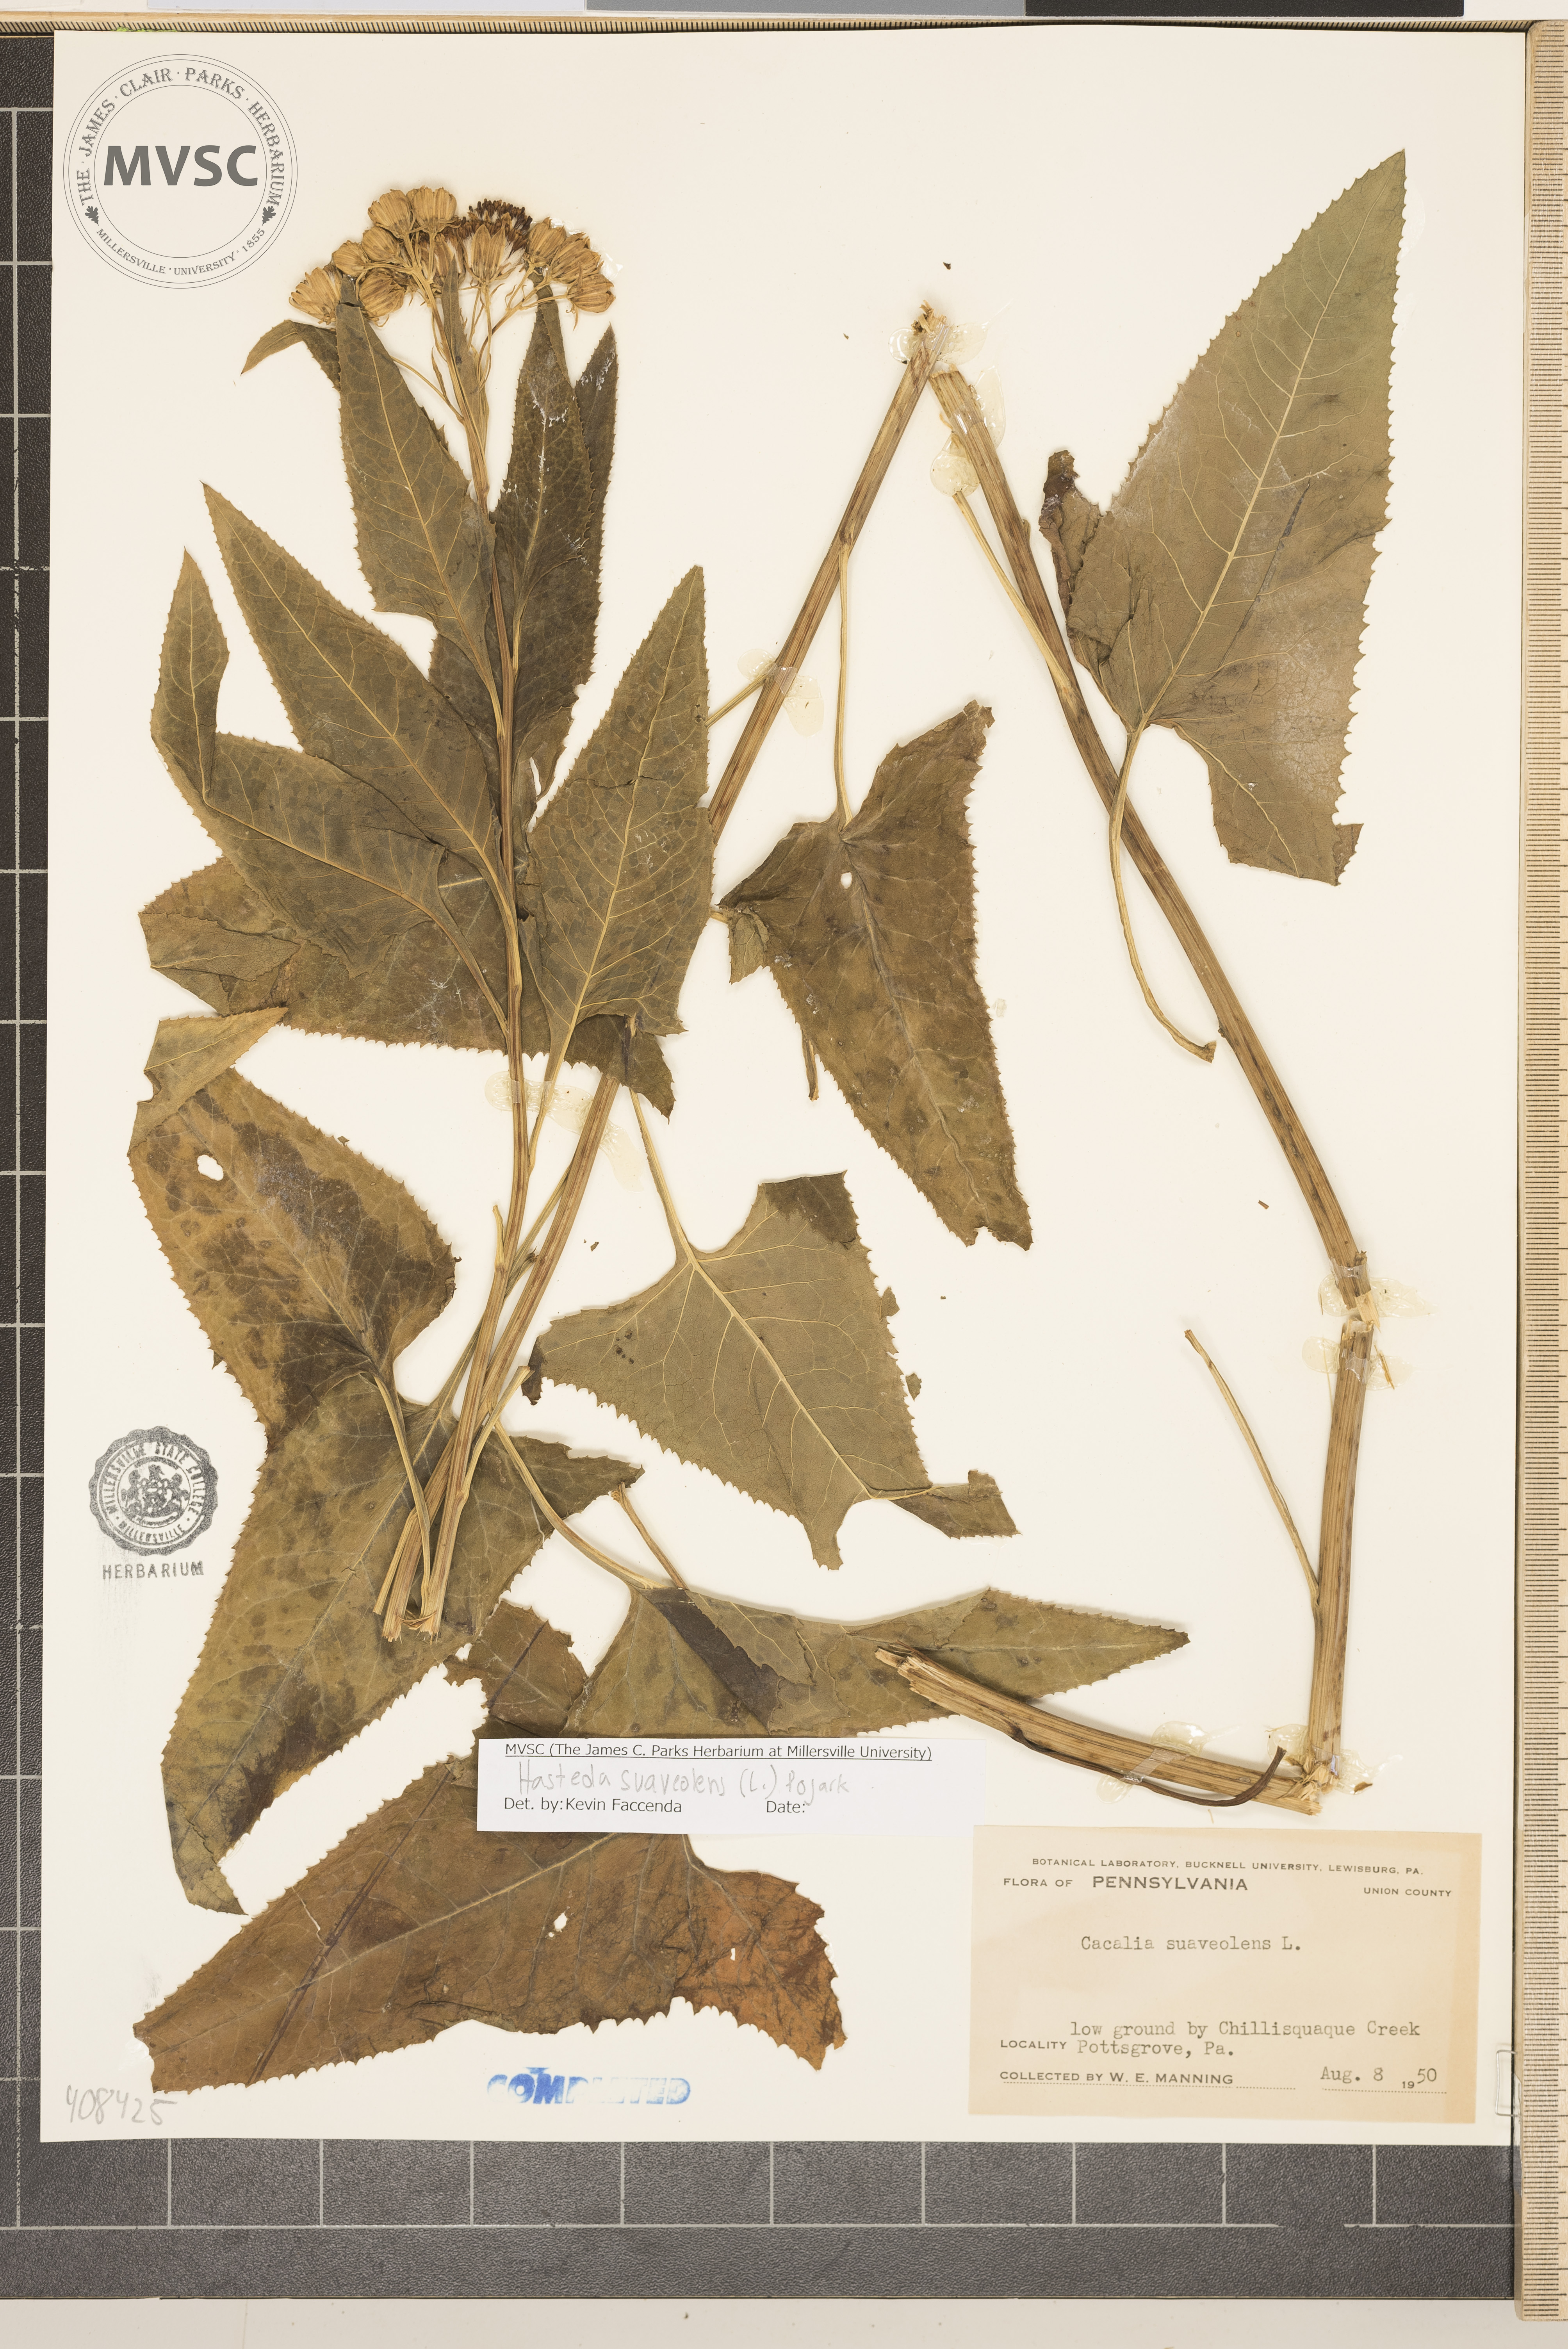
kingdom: Plantae
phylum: Tracheophyta
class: Magnoliopsida
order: Asterales
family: Asteraceae
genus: Hasteola
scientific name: Hasteola suaveolens
